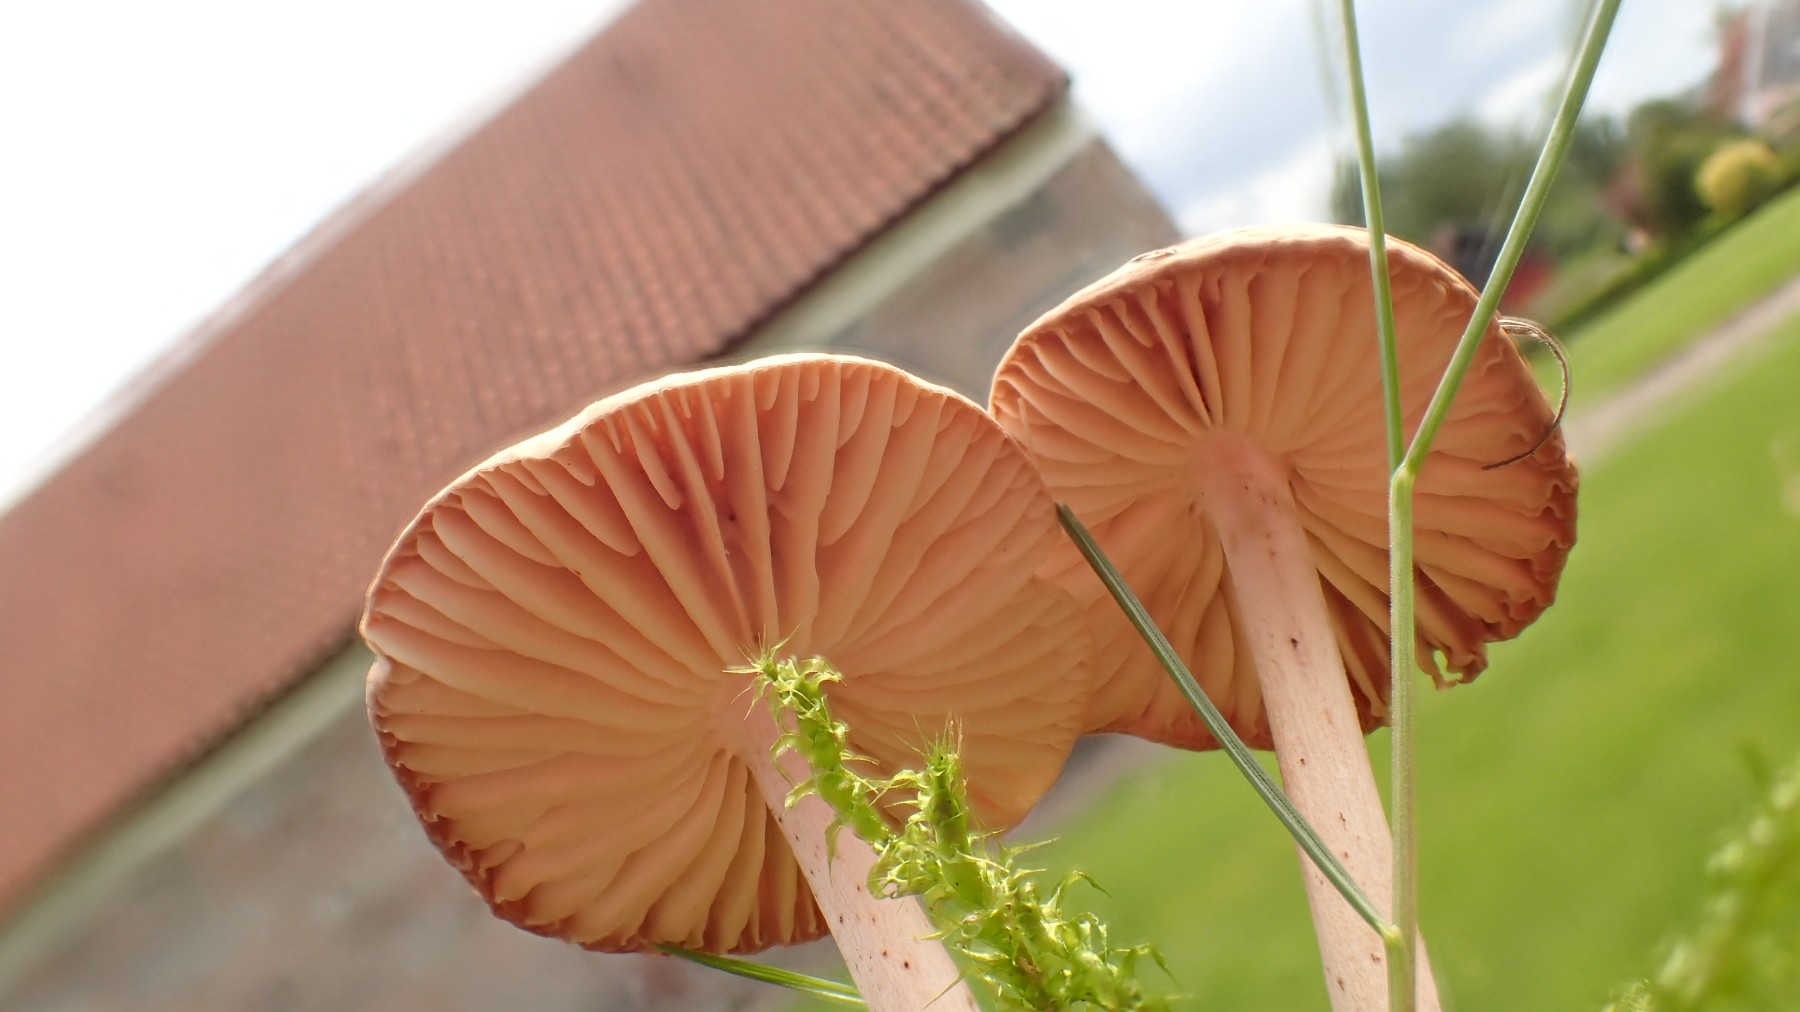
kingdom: Fungi
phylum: Basidiomycota
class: Agaricomycetes
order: Agaricales
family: Marasmiaceae
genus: Marasmius
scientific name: Marasmius oreades
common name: elledans-bruskhat
